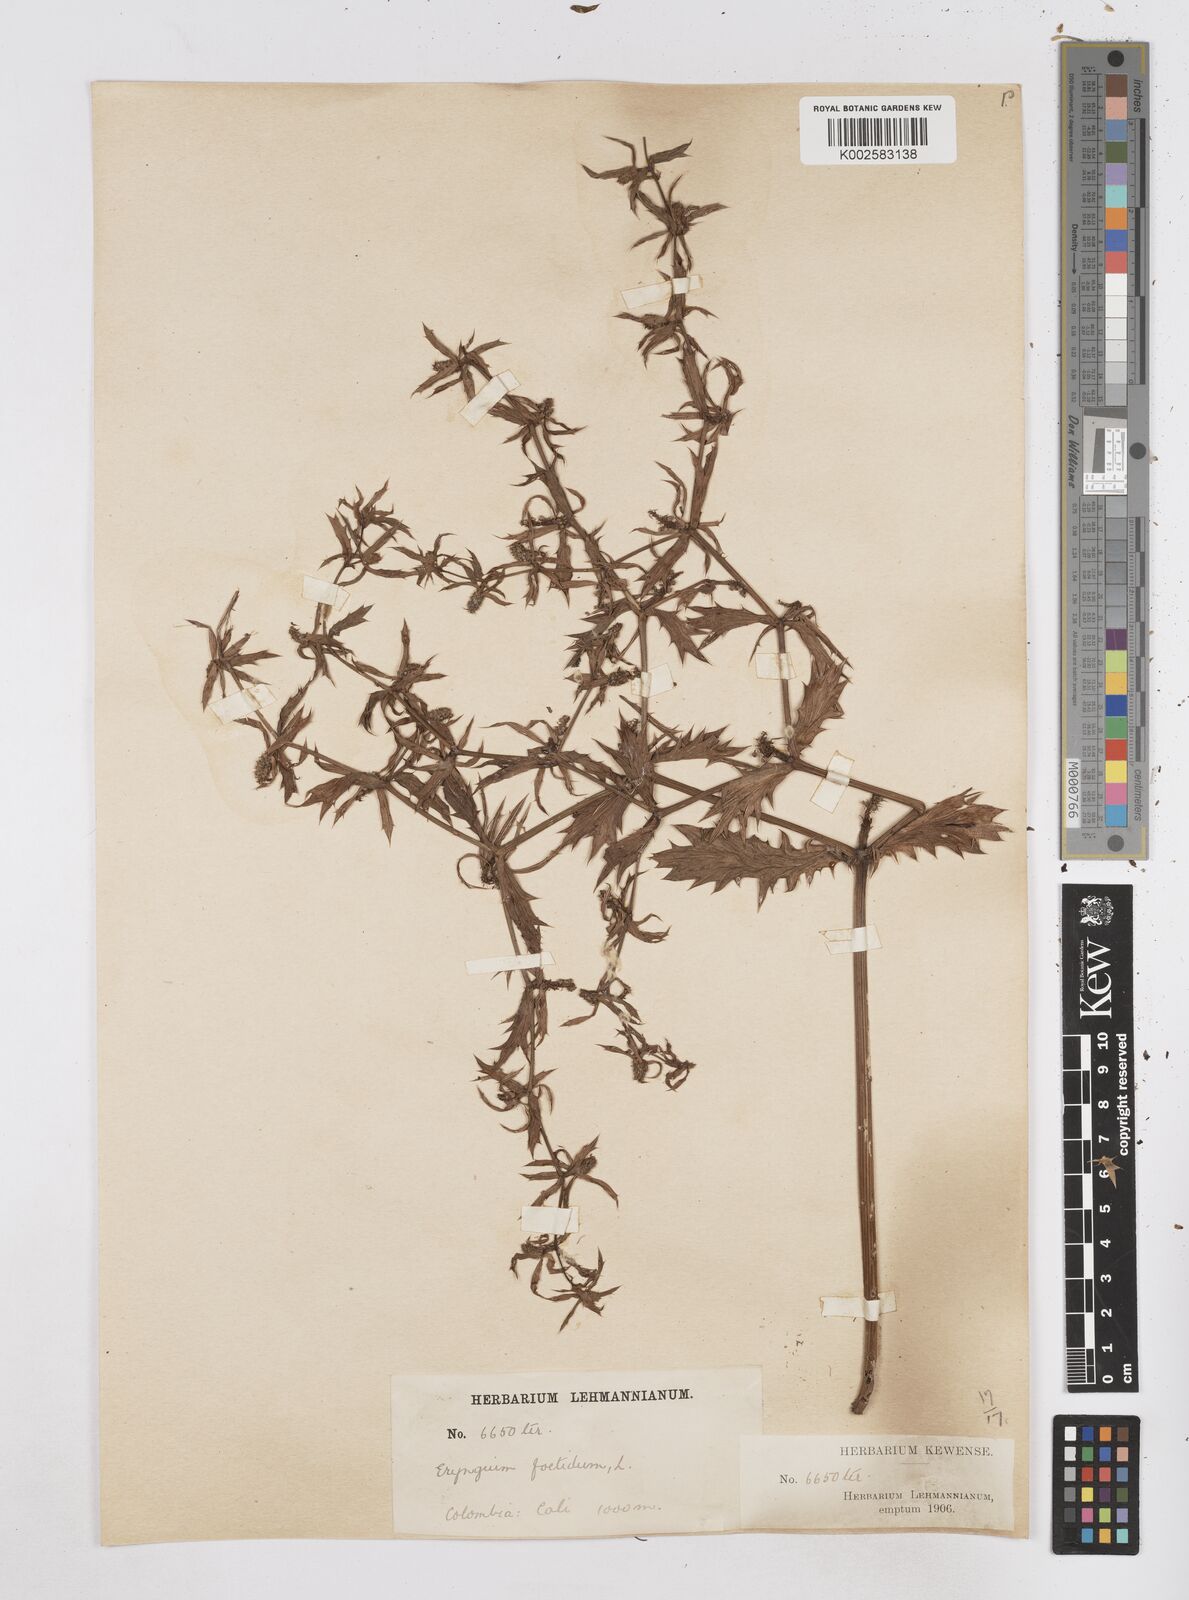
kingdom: Plantae
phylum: Tracheophyta
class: Magnoliopsida
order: Apiales
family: Apiaceae
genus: Eryngium
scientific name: Eryngium foetidum
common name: Fitweed
